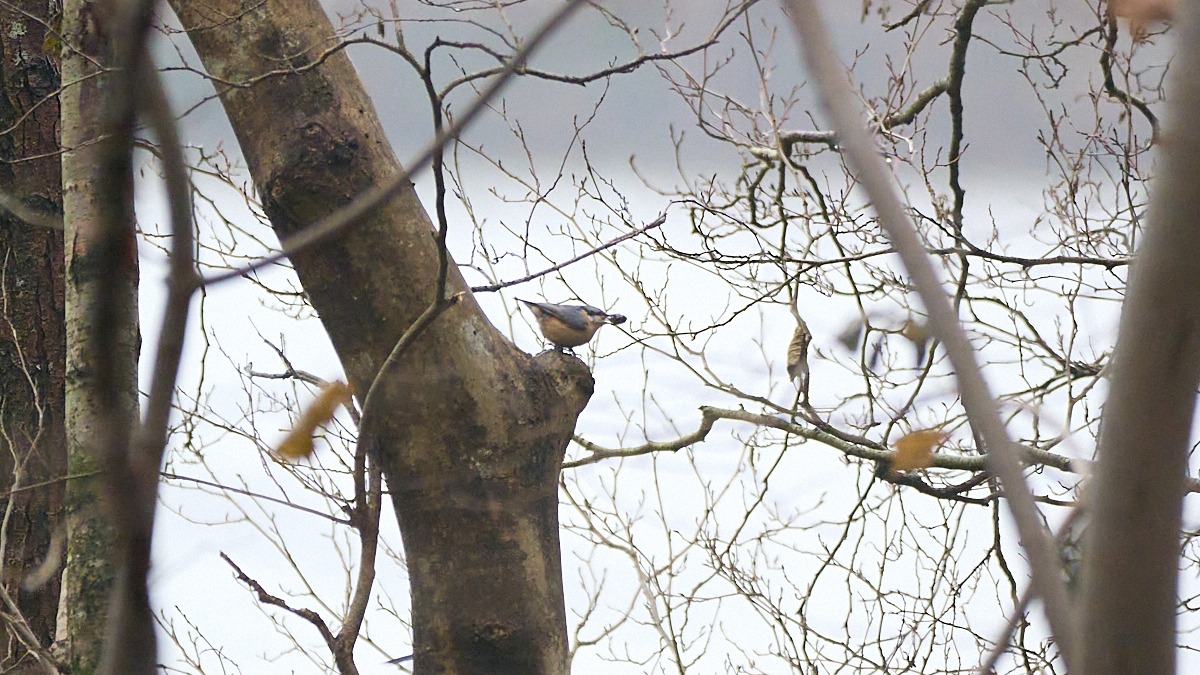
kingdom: Animalia
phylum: Chordata
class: Aves
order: Passeriformes
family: Sittidae
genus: Sitta
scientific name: Sitta europaea
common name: Spætmejse
